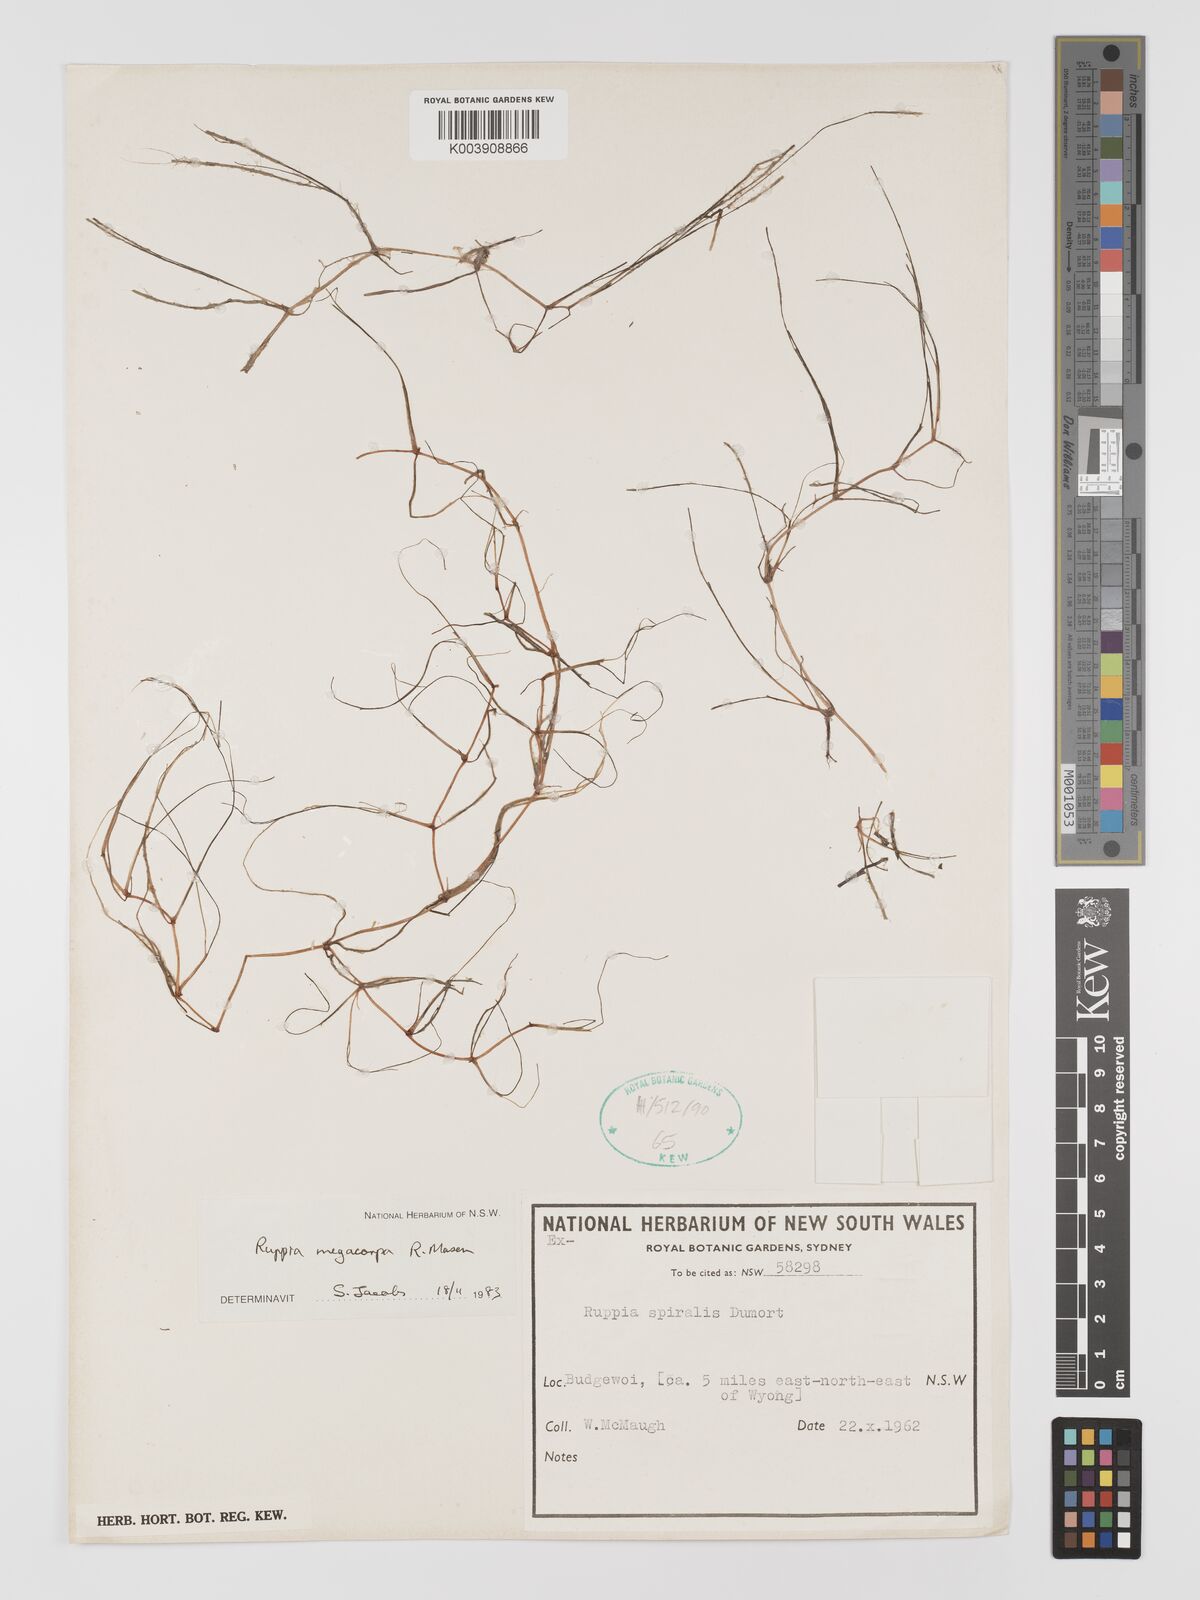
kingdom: Plantae
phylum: Tracheophyta
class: Liliopsida
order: Alismatales
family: Ruppiaceae
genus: Ruppia
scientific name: Ruppia megacarpa
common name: Large-fruit seatassel
